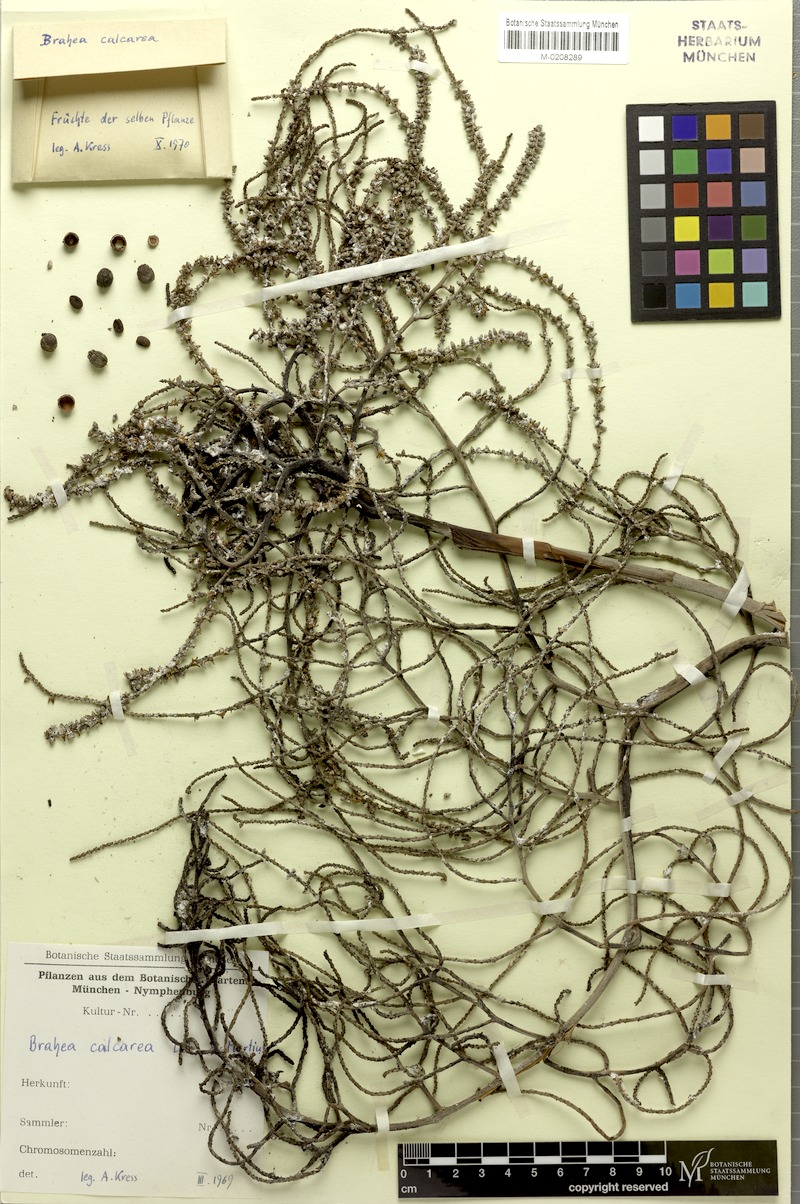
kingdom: Plantae
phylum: Tracheophyta
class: Liliopsida
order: Arecales
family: Arecaceae
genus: Brahea
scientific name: Brahea calcarea
